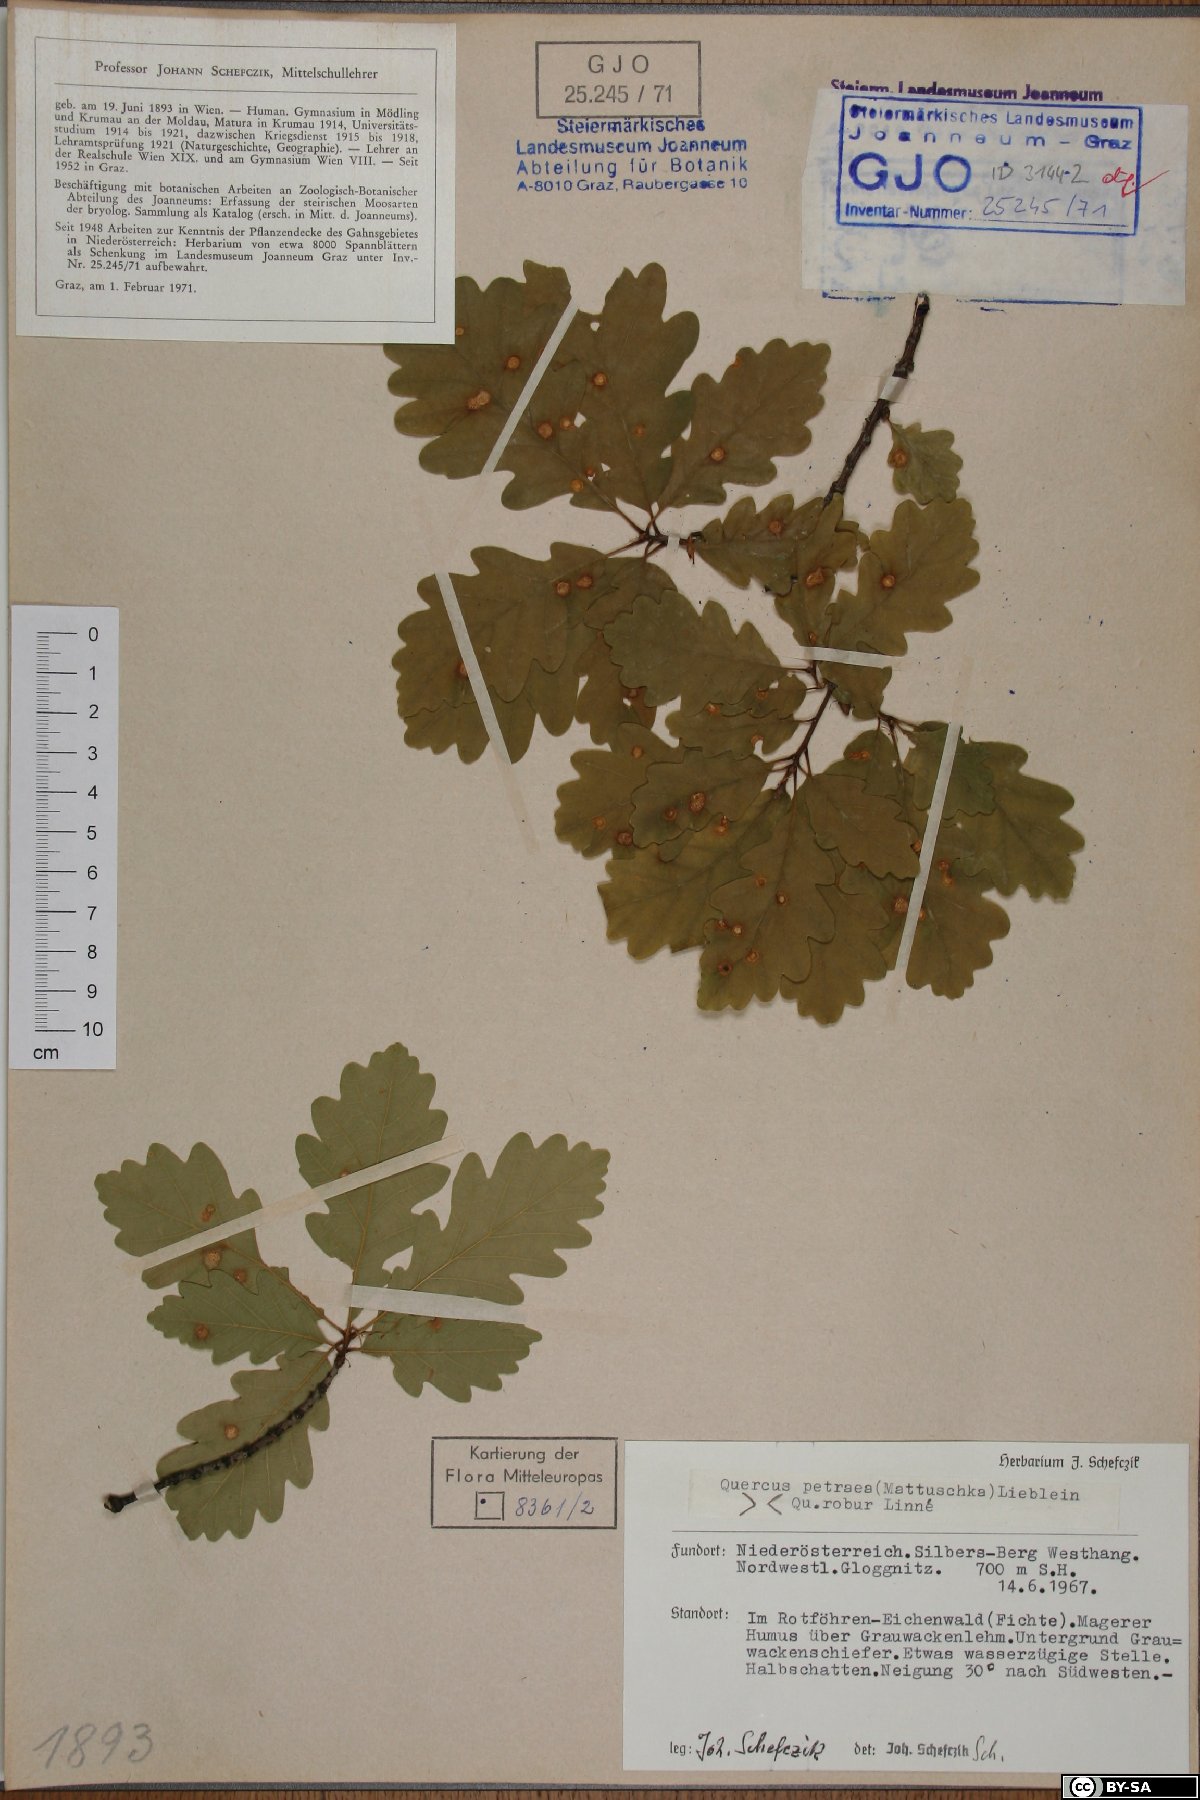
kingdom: Plantae
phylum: Tracheophyta
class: Magnoliopsida
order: Fagales
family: Fagaceae
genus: Quercus
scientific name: Quercus petraea
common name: Sessile oak
